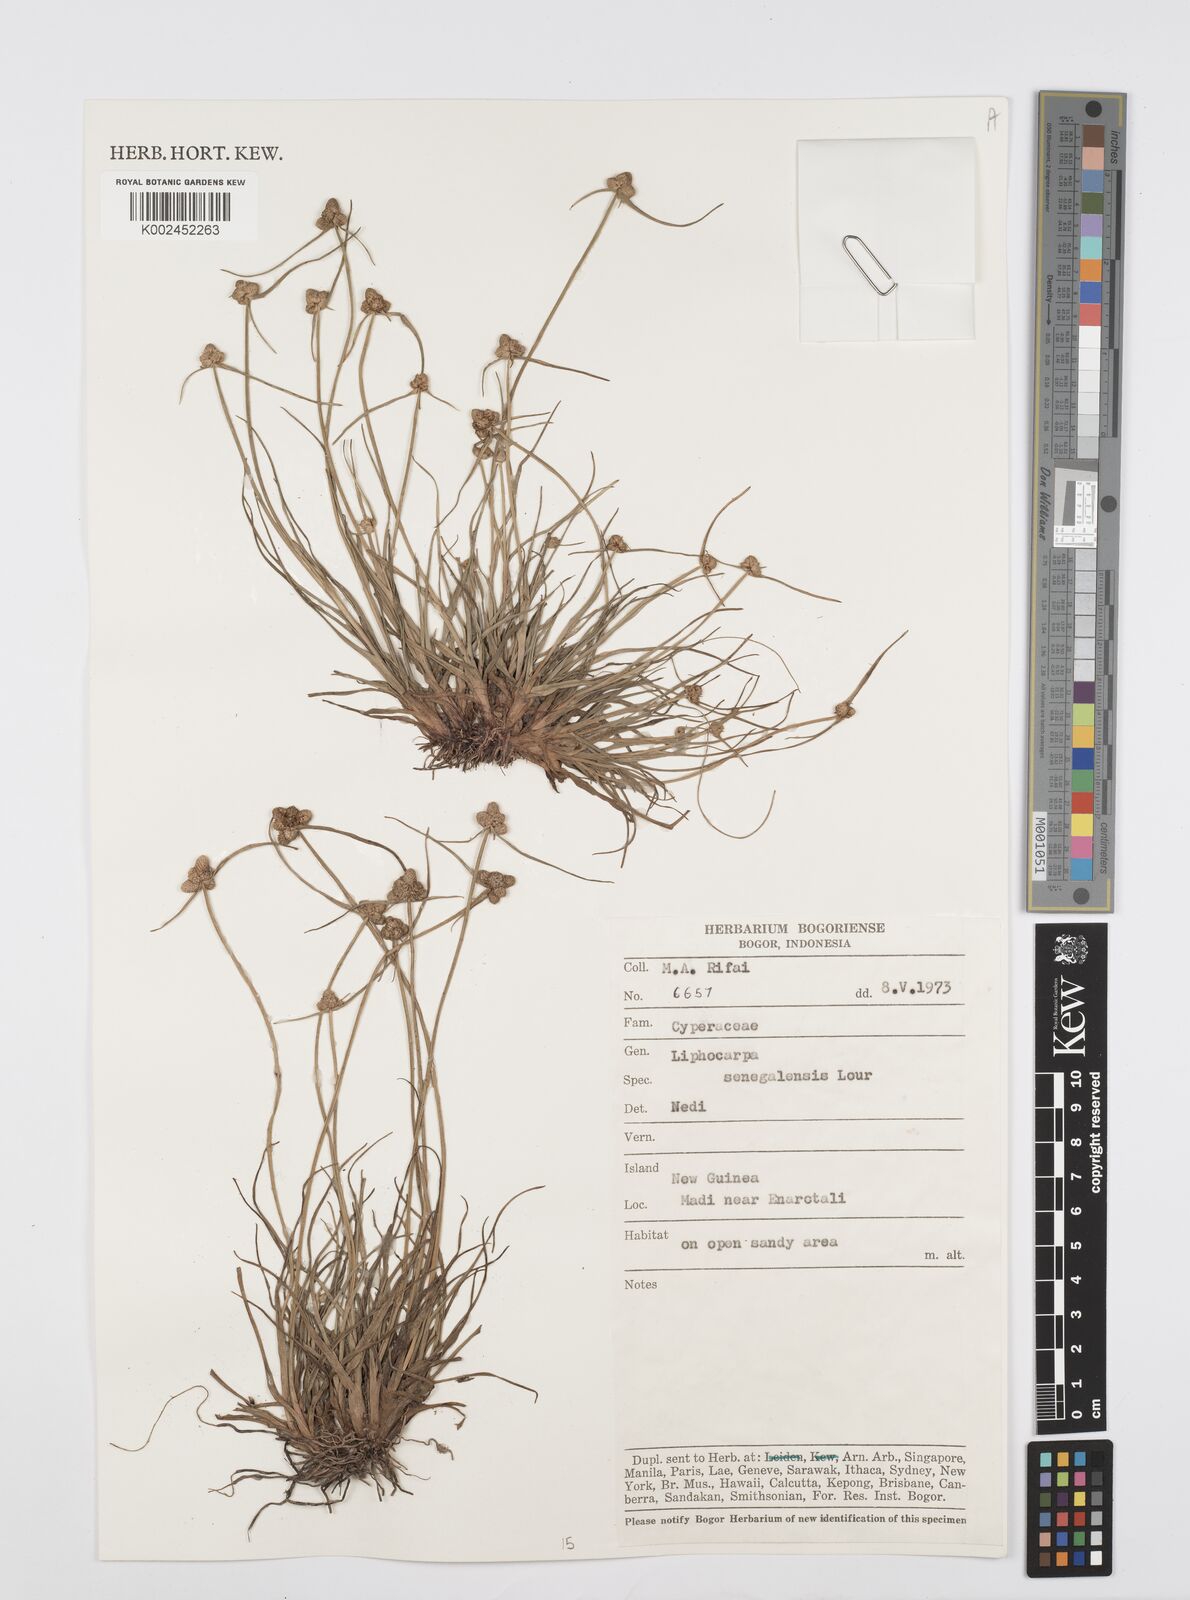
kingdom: Plantae
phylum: Tracheophyta
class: Liliopsida
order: Poales
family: Cyperaceae
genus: Cyperus
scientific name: Cyperus
